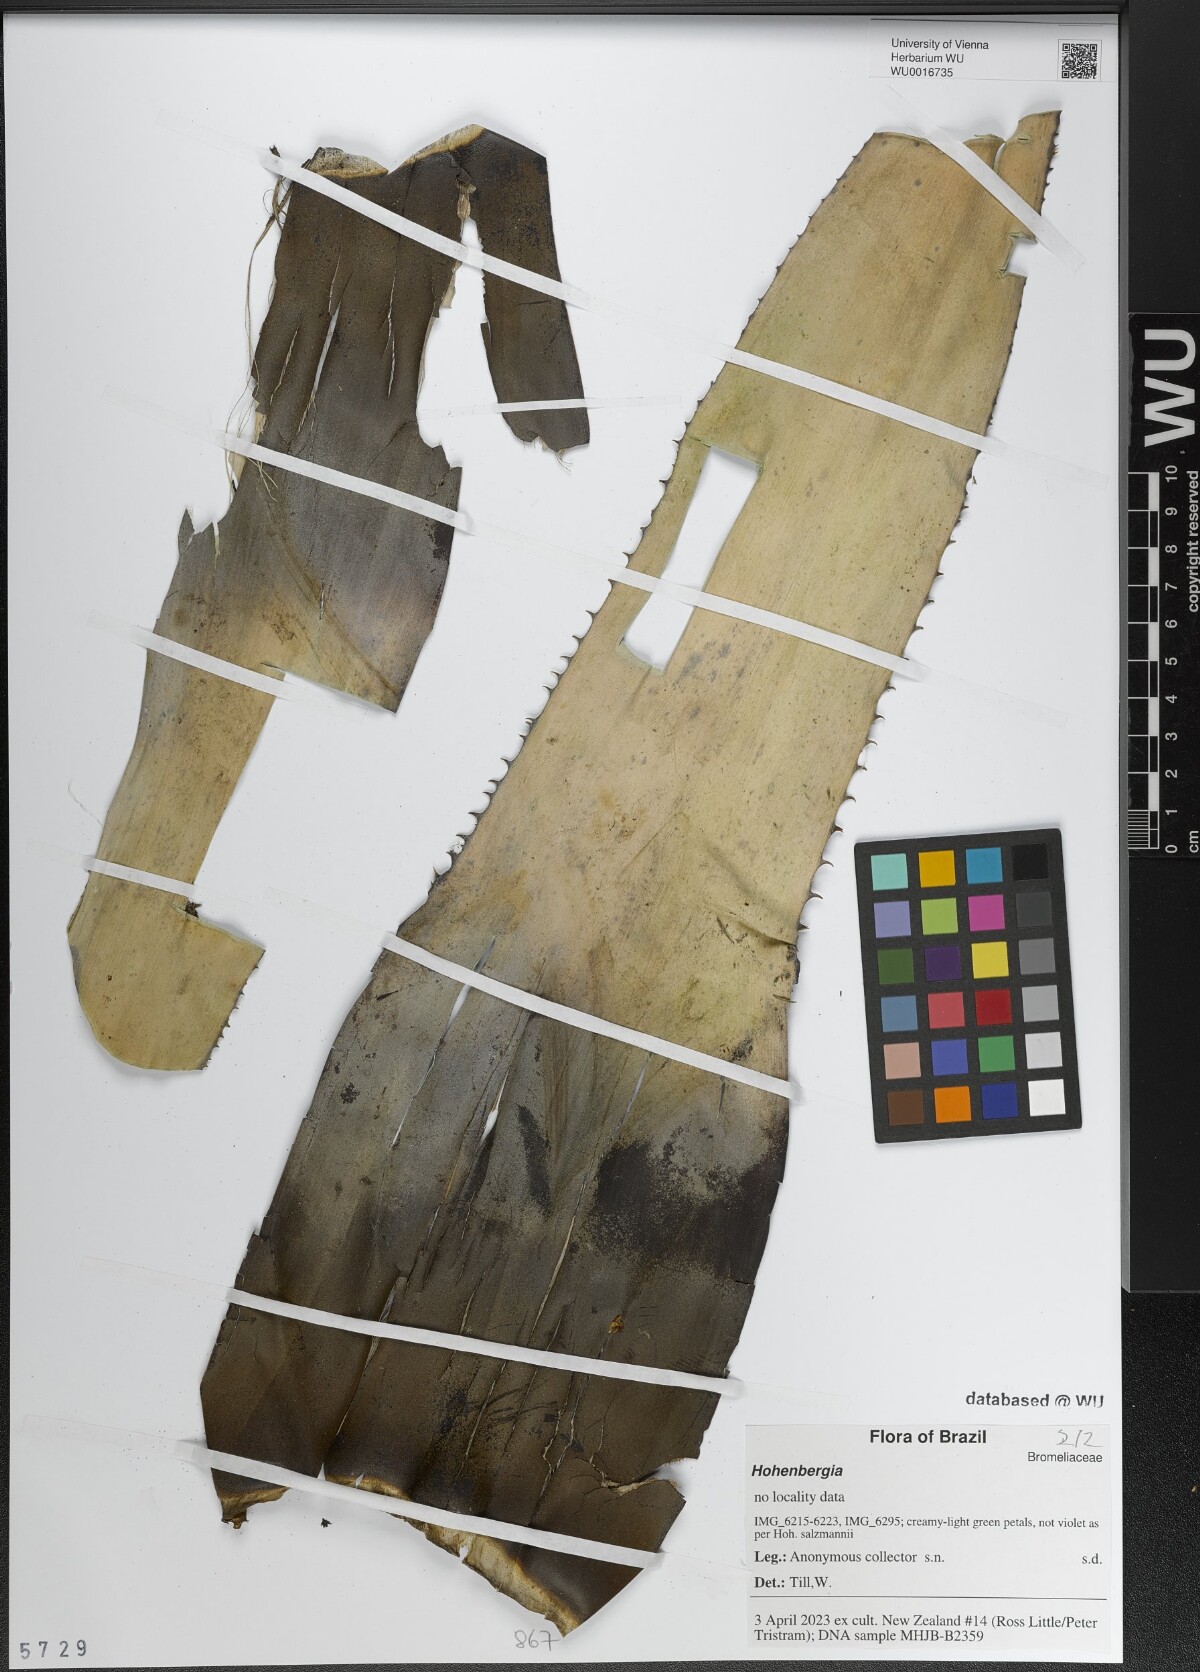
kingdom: Plantae
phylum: Tracheophyta
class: Liliopsida
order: Poales
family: Bromeliaceae
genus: Hohenbergia
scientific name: Hohenbergia
